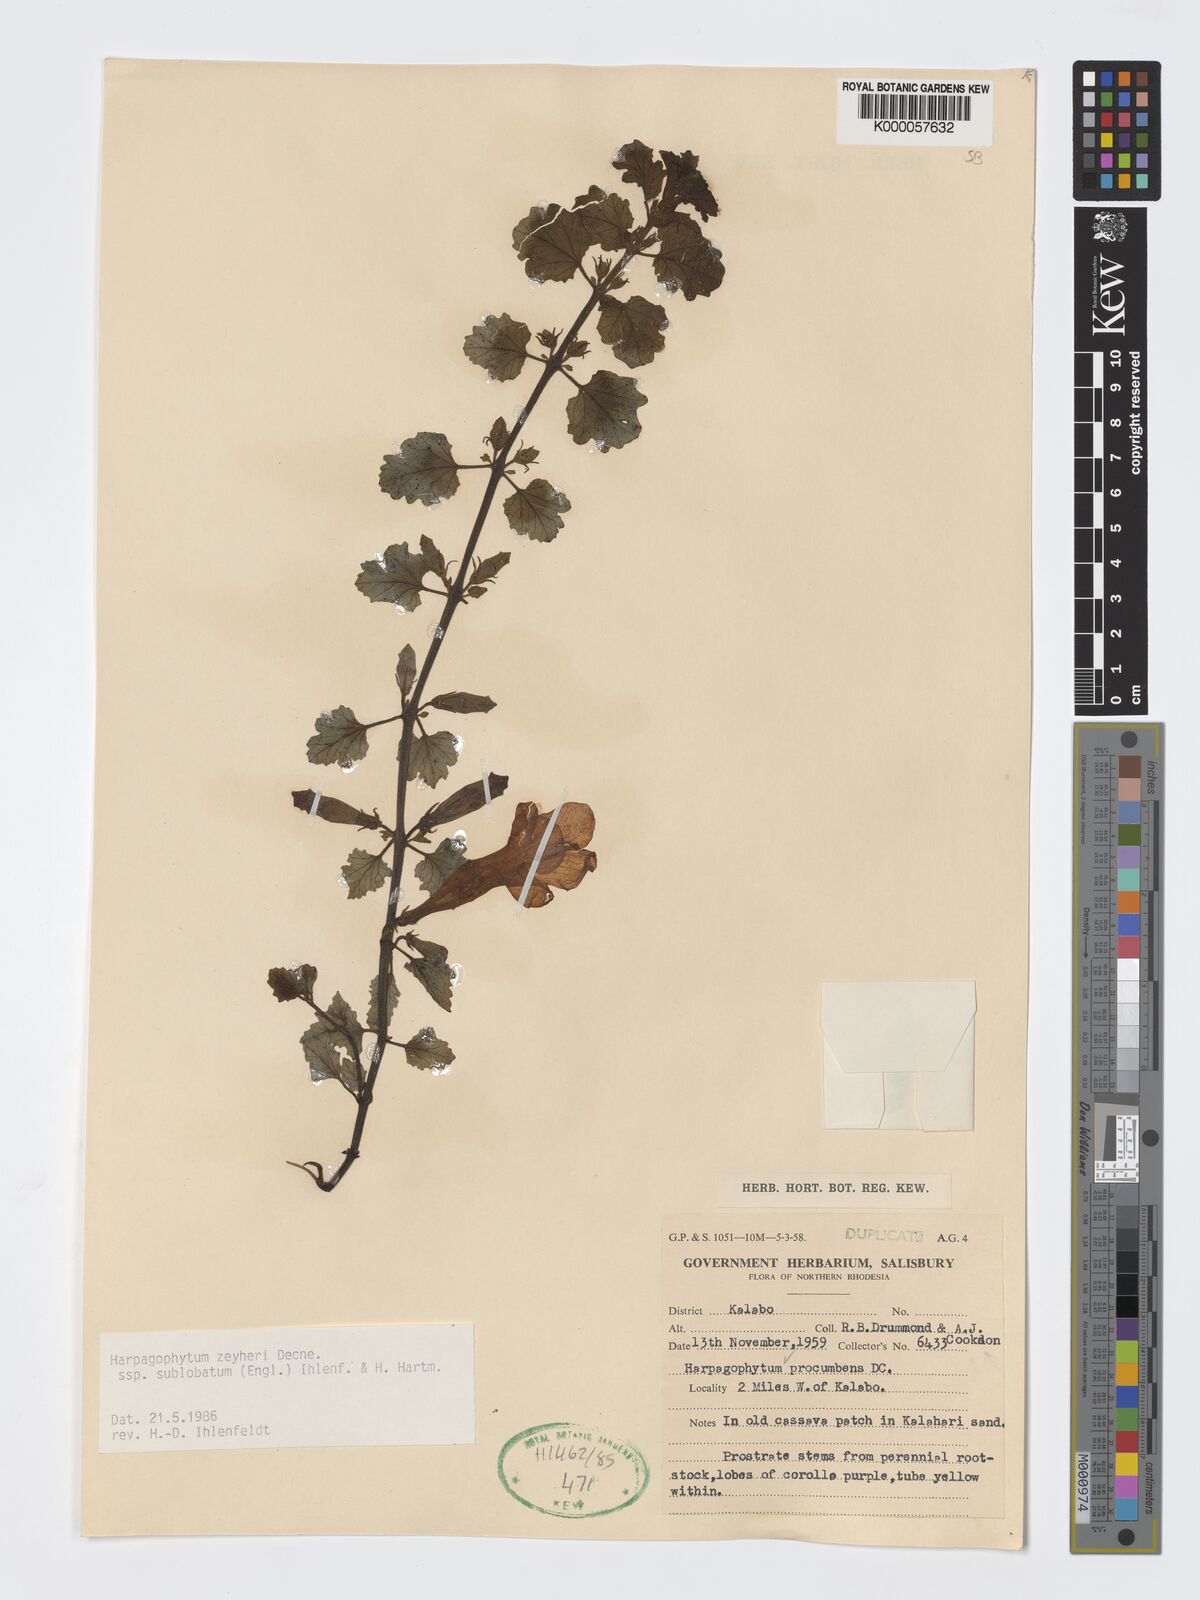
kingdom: Plantae
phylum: Tracheophyta
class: Magnoliopsida
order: Lamiales
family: Pedaliaceae
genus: Harpagophytum
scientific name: Harpagophytum zeyheri
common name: Grappleplant
